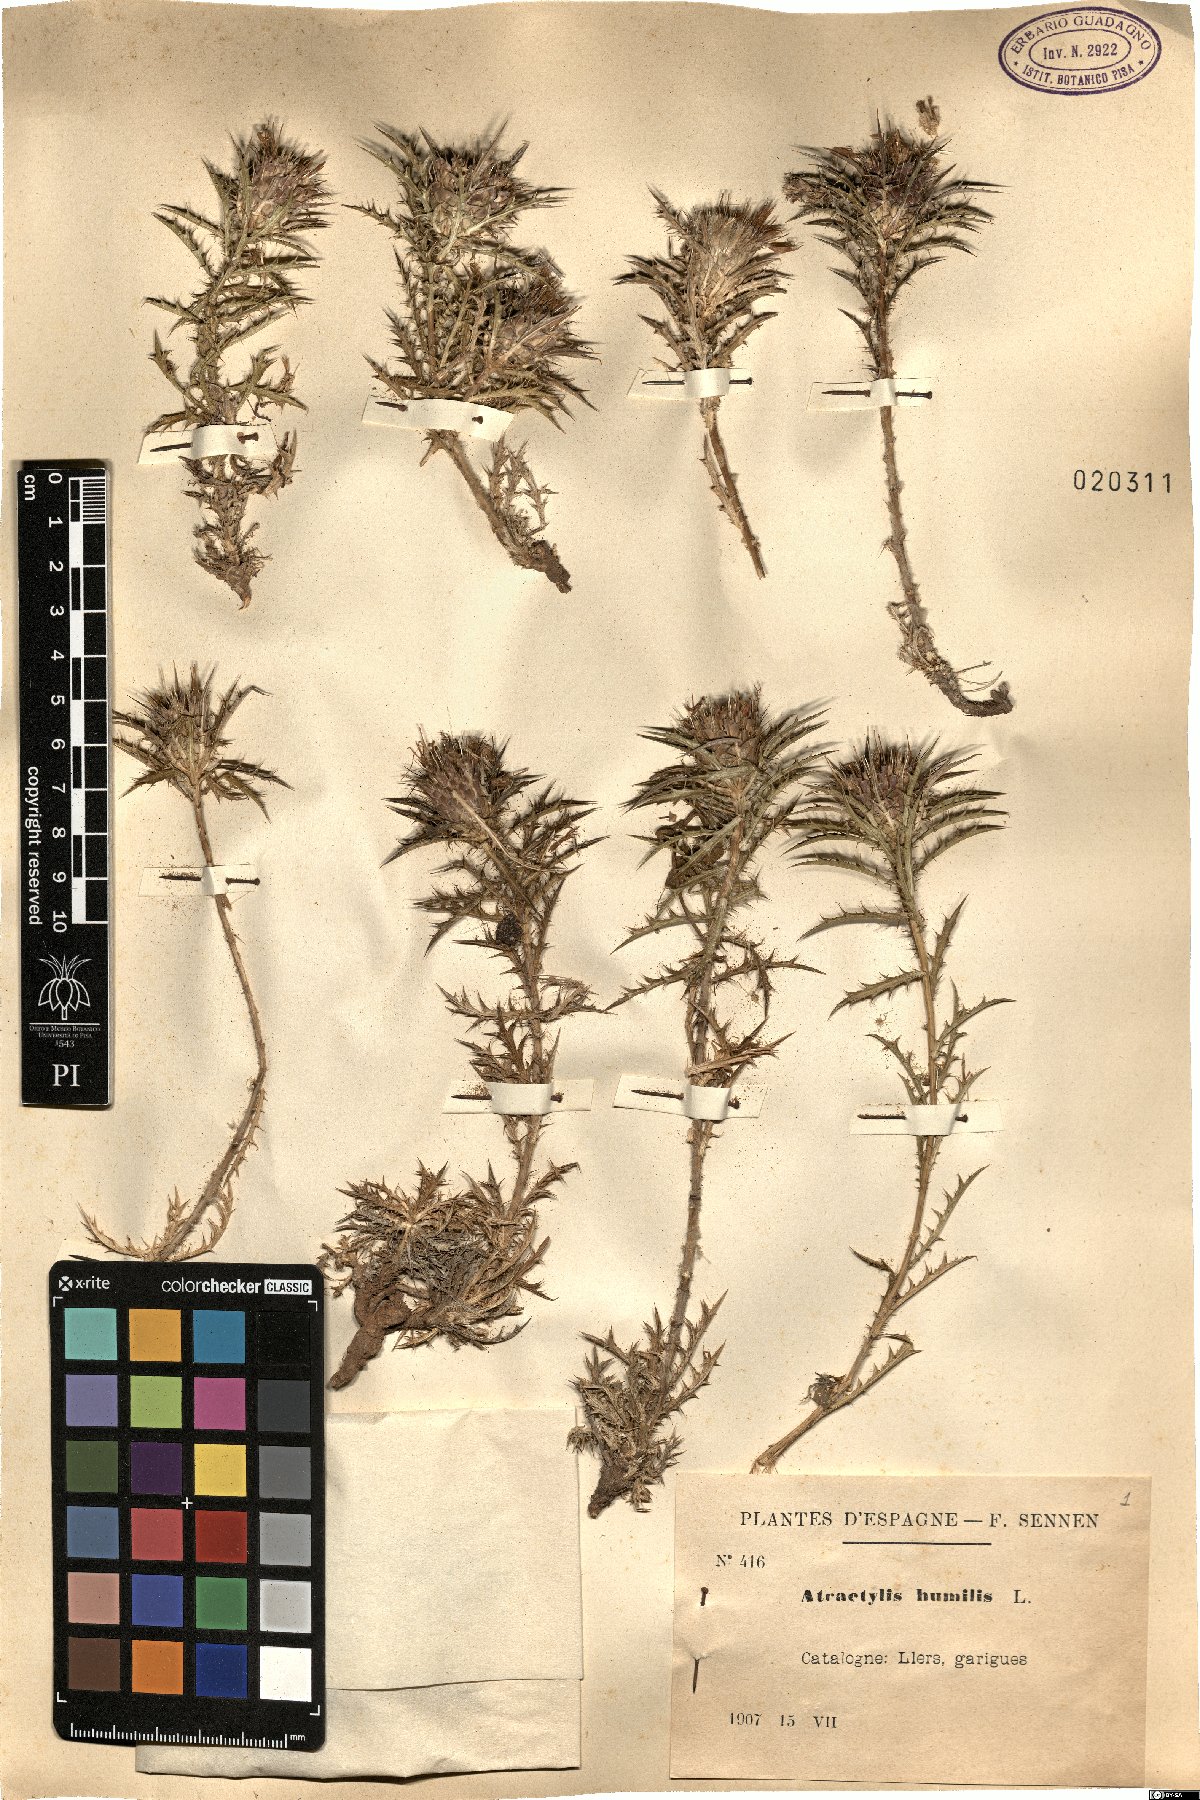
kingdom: Plantae
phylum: Tracheophyta
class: Magnoliopsida
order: Asterales
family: Asteraceae
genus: Atractylis
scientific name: Atractylis humilis
